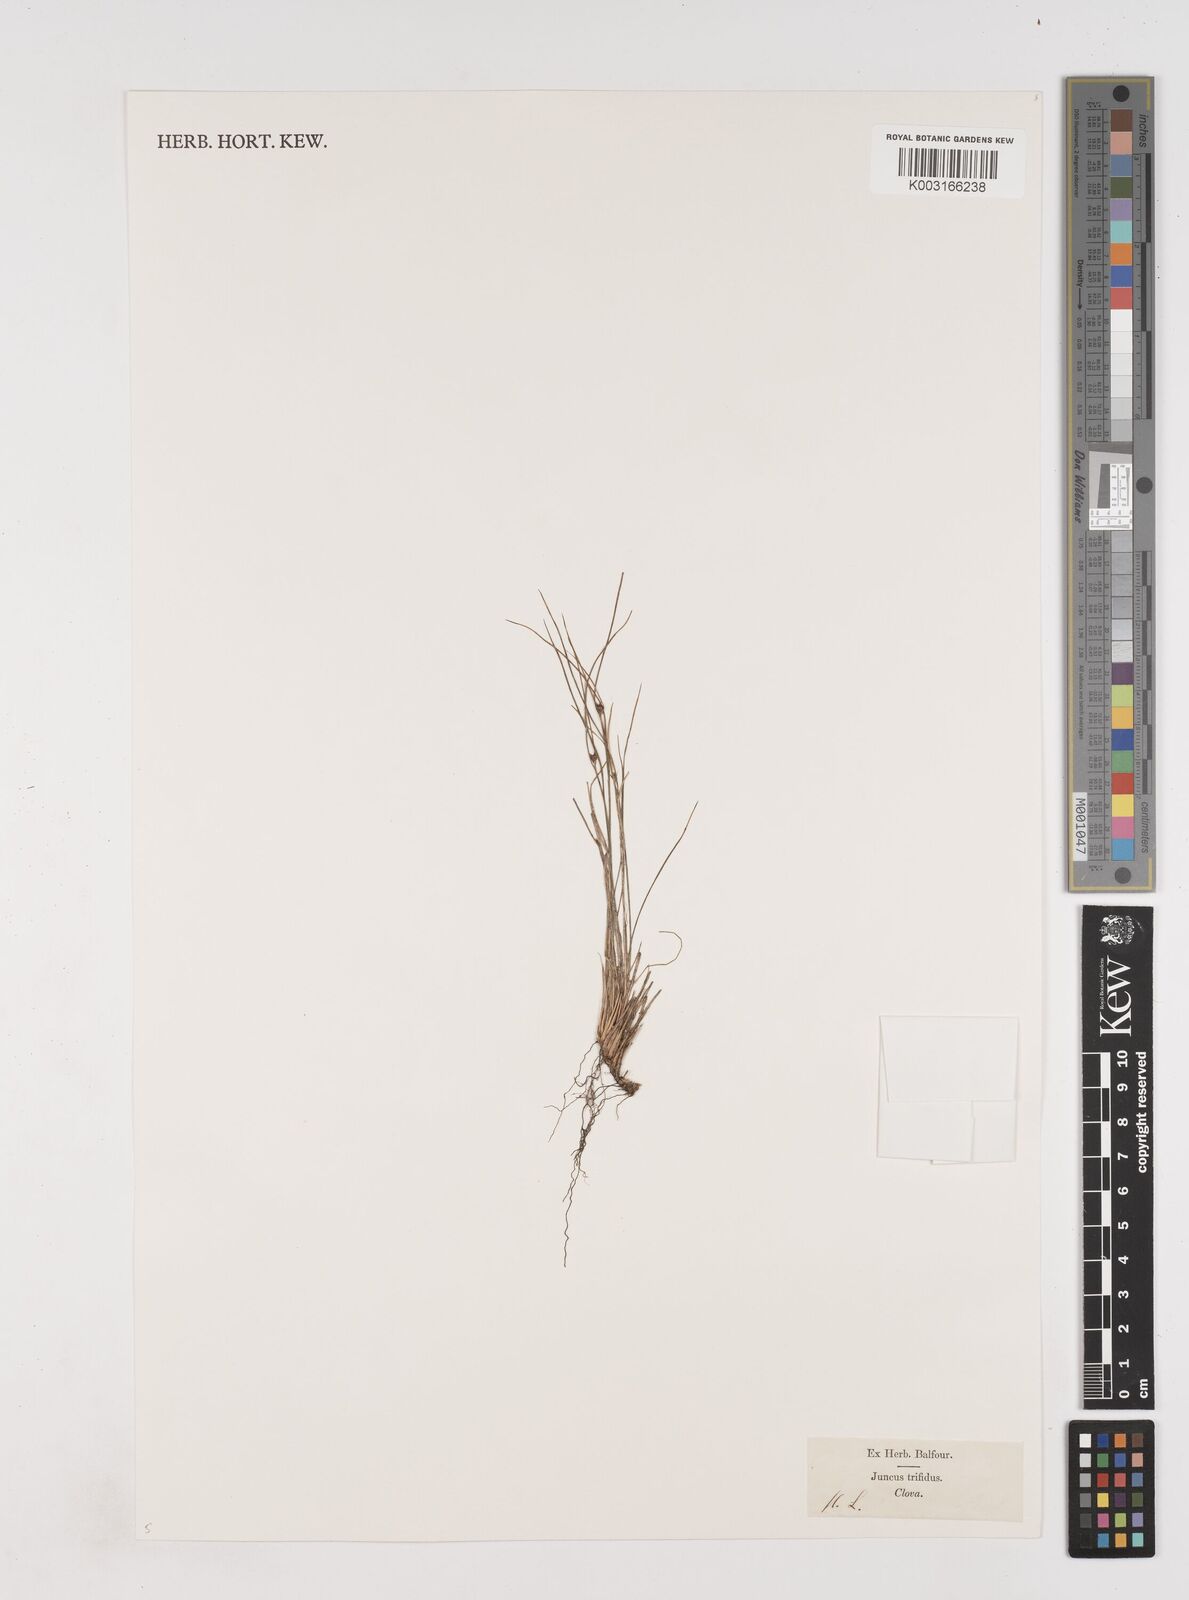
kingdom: Plantae
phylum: Tracheophyta
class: Liliopsida
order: Poales
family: Juncaceae
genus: Oreojuncus
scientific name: Oreojuncus trifidus
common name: Highland rush
